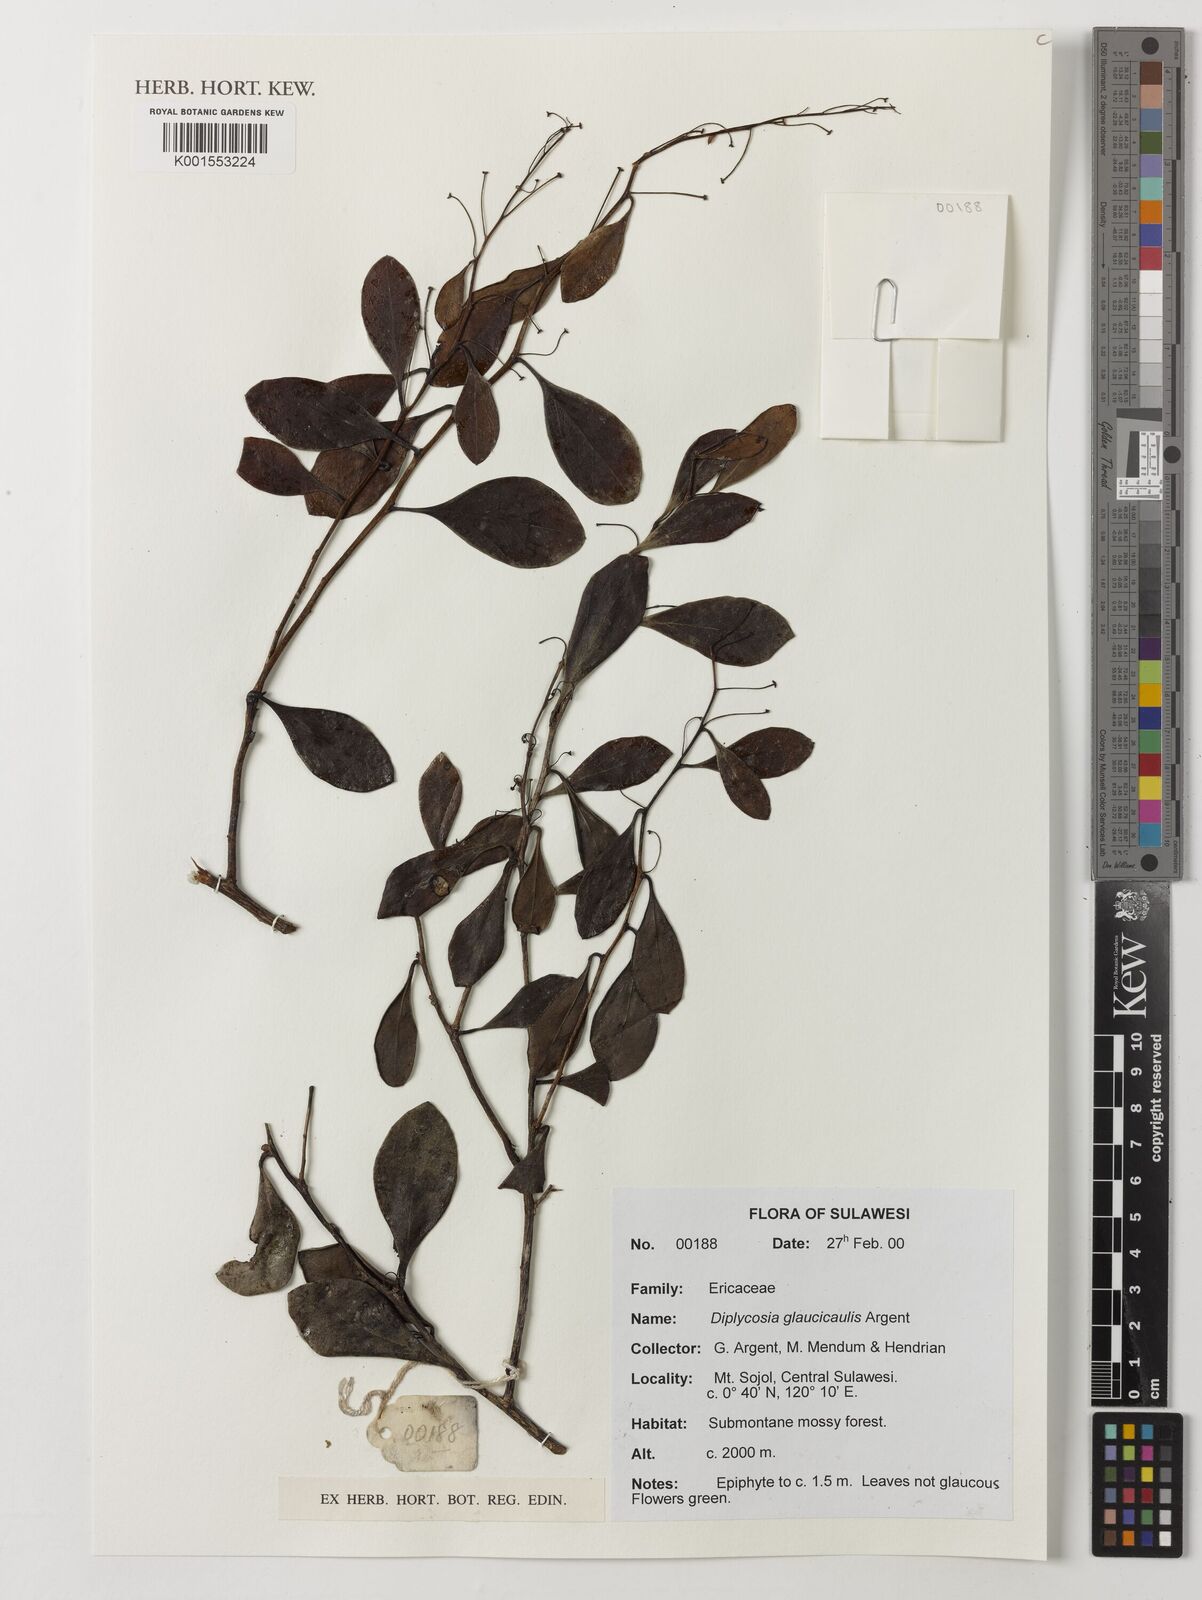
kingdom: Plantae
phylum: Tracheophyta
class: Magnoliopsida
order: Ericales
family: Ericaceae
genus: Gaultheria
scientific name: Gaultheria glaucicaulis
